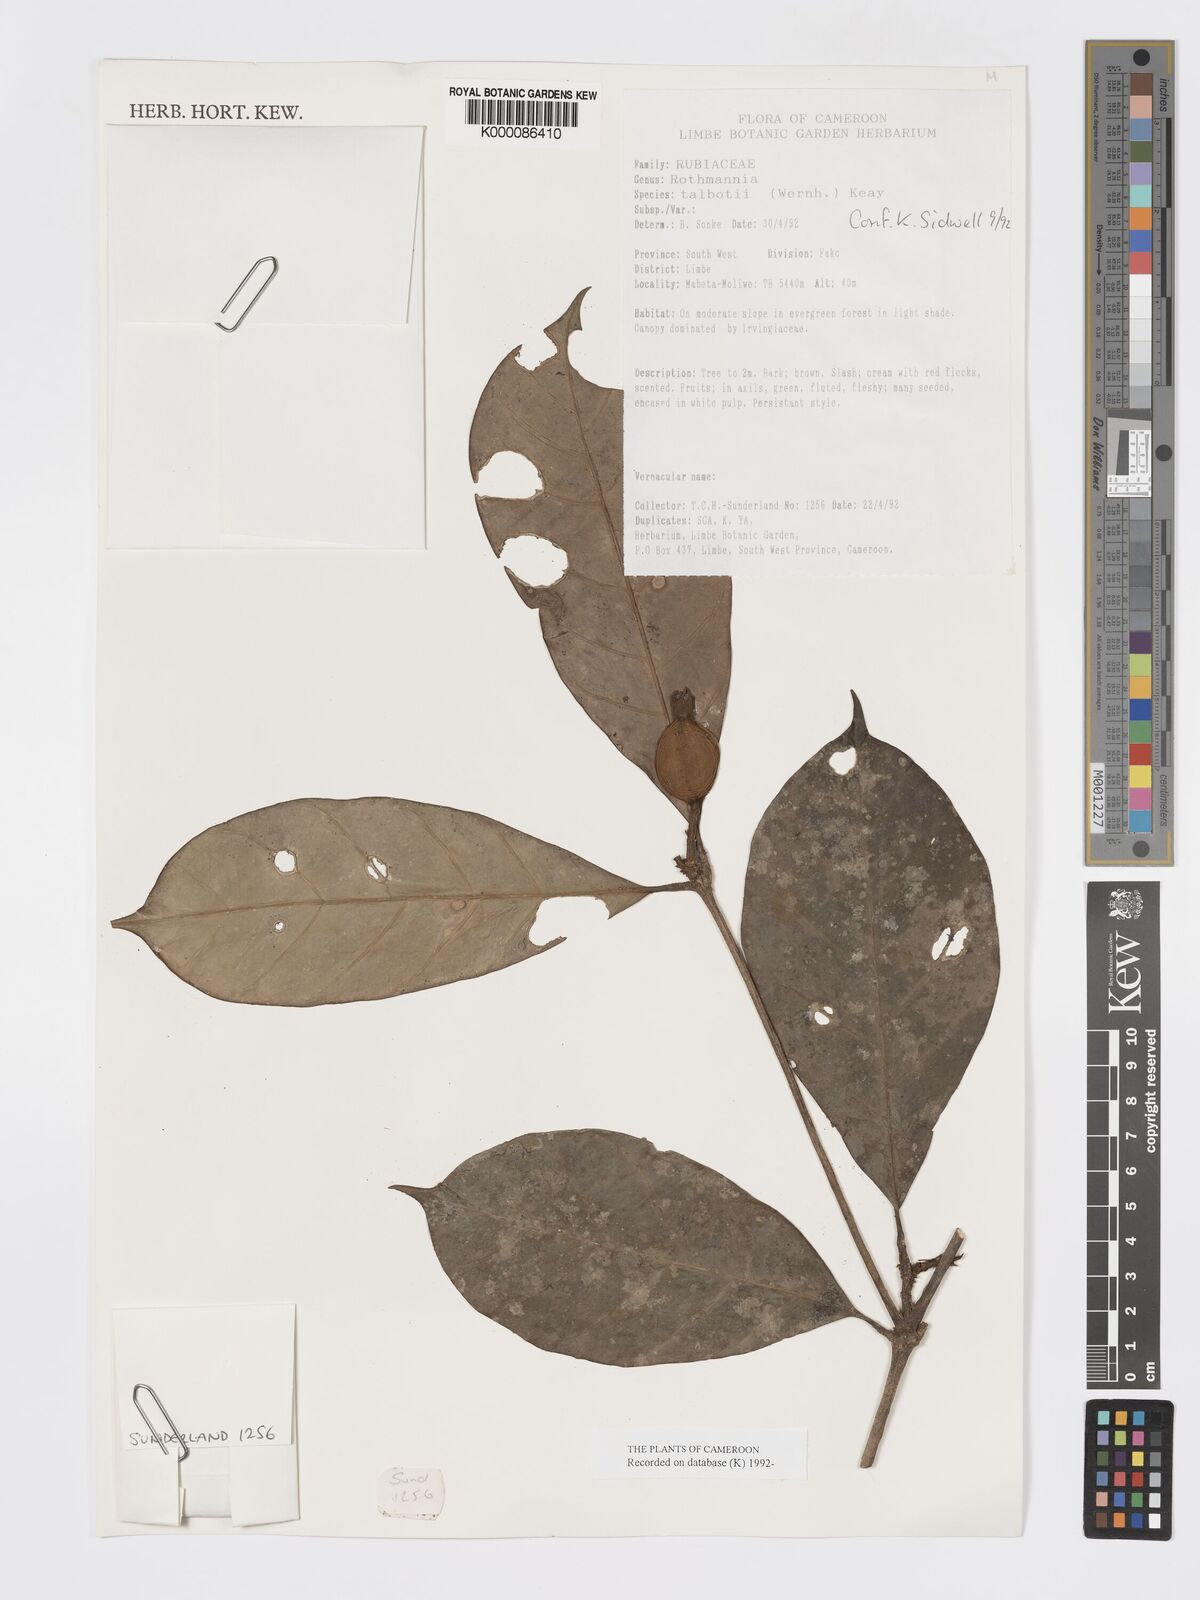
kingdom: Plantae
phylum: Tracheophyta
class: Magnoliopsida
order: Gentianales
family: Rubiaceae
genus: Rothmannia
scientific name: Rothmannia talbotii
